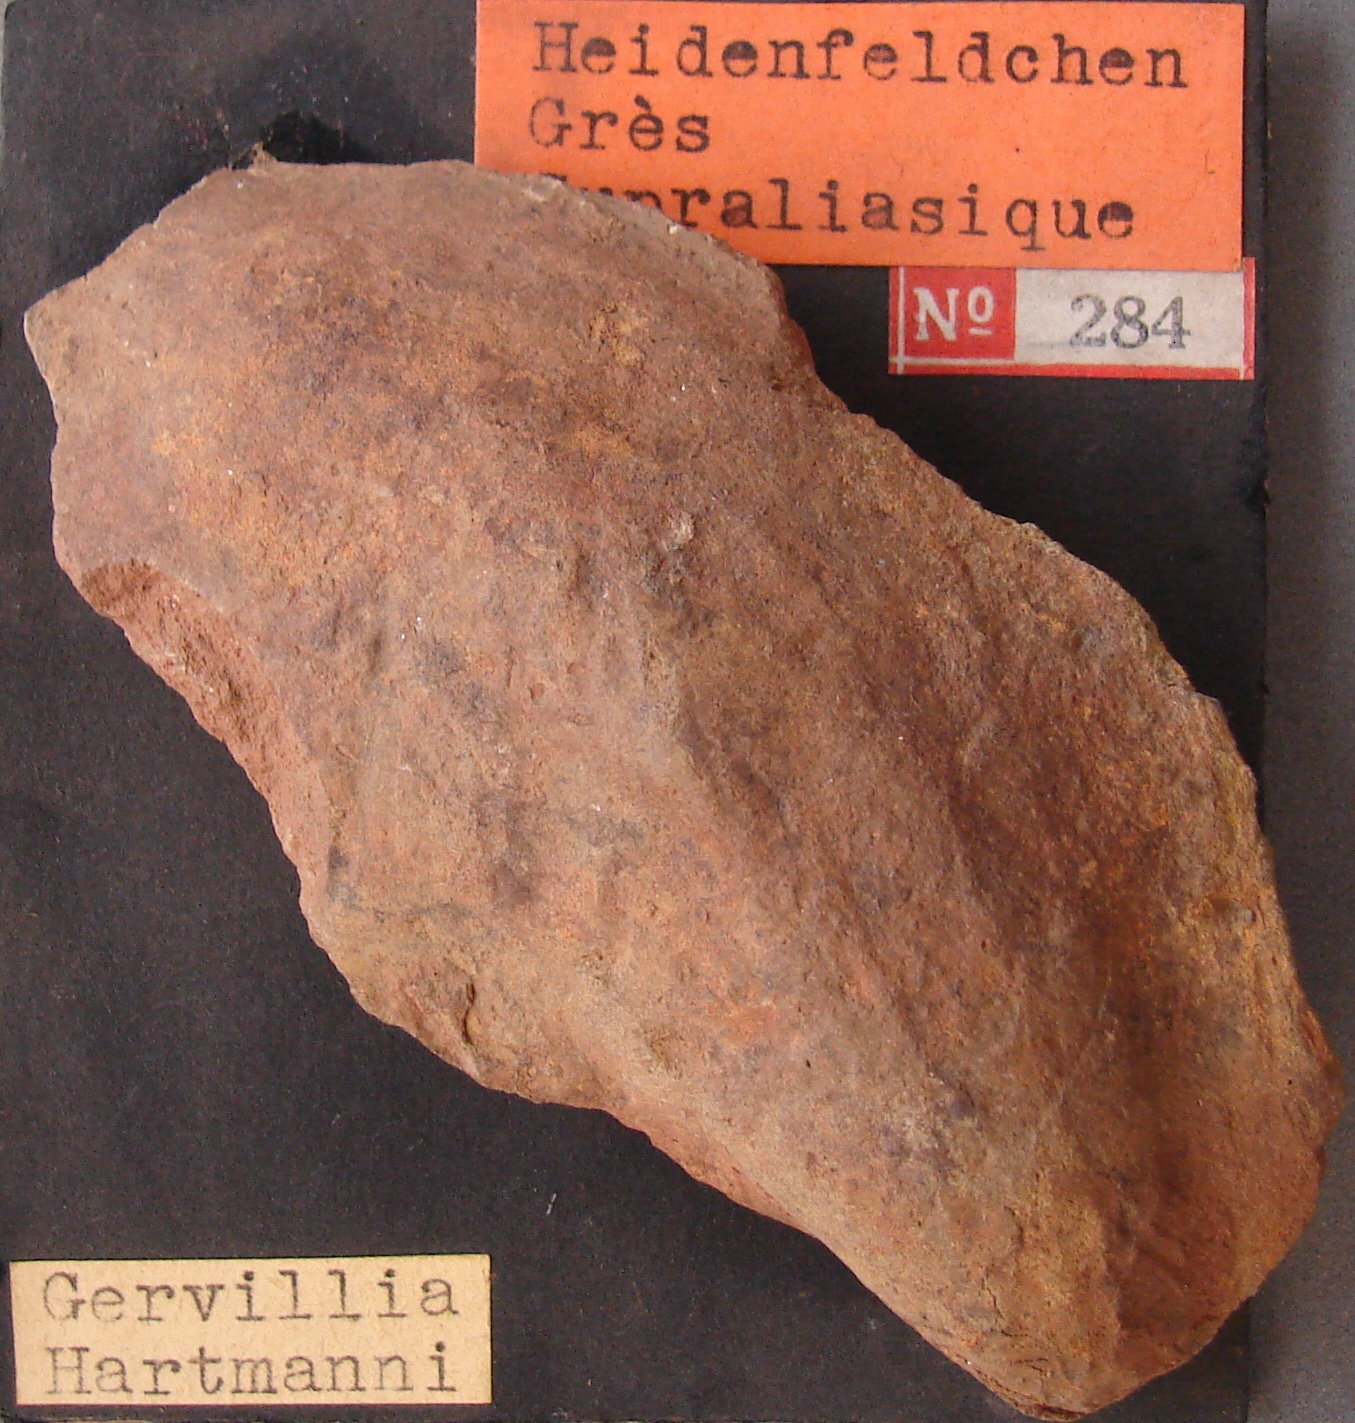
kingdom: Animalia
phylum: Mollusca
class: Bivalvia
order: Ostreida
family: Bakevelliidae
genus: Gervillia
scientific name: Gervillia hartmanni
